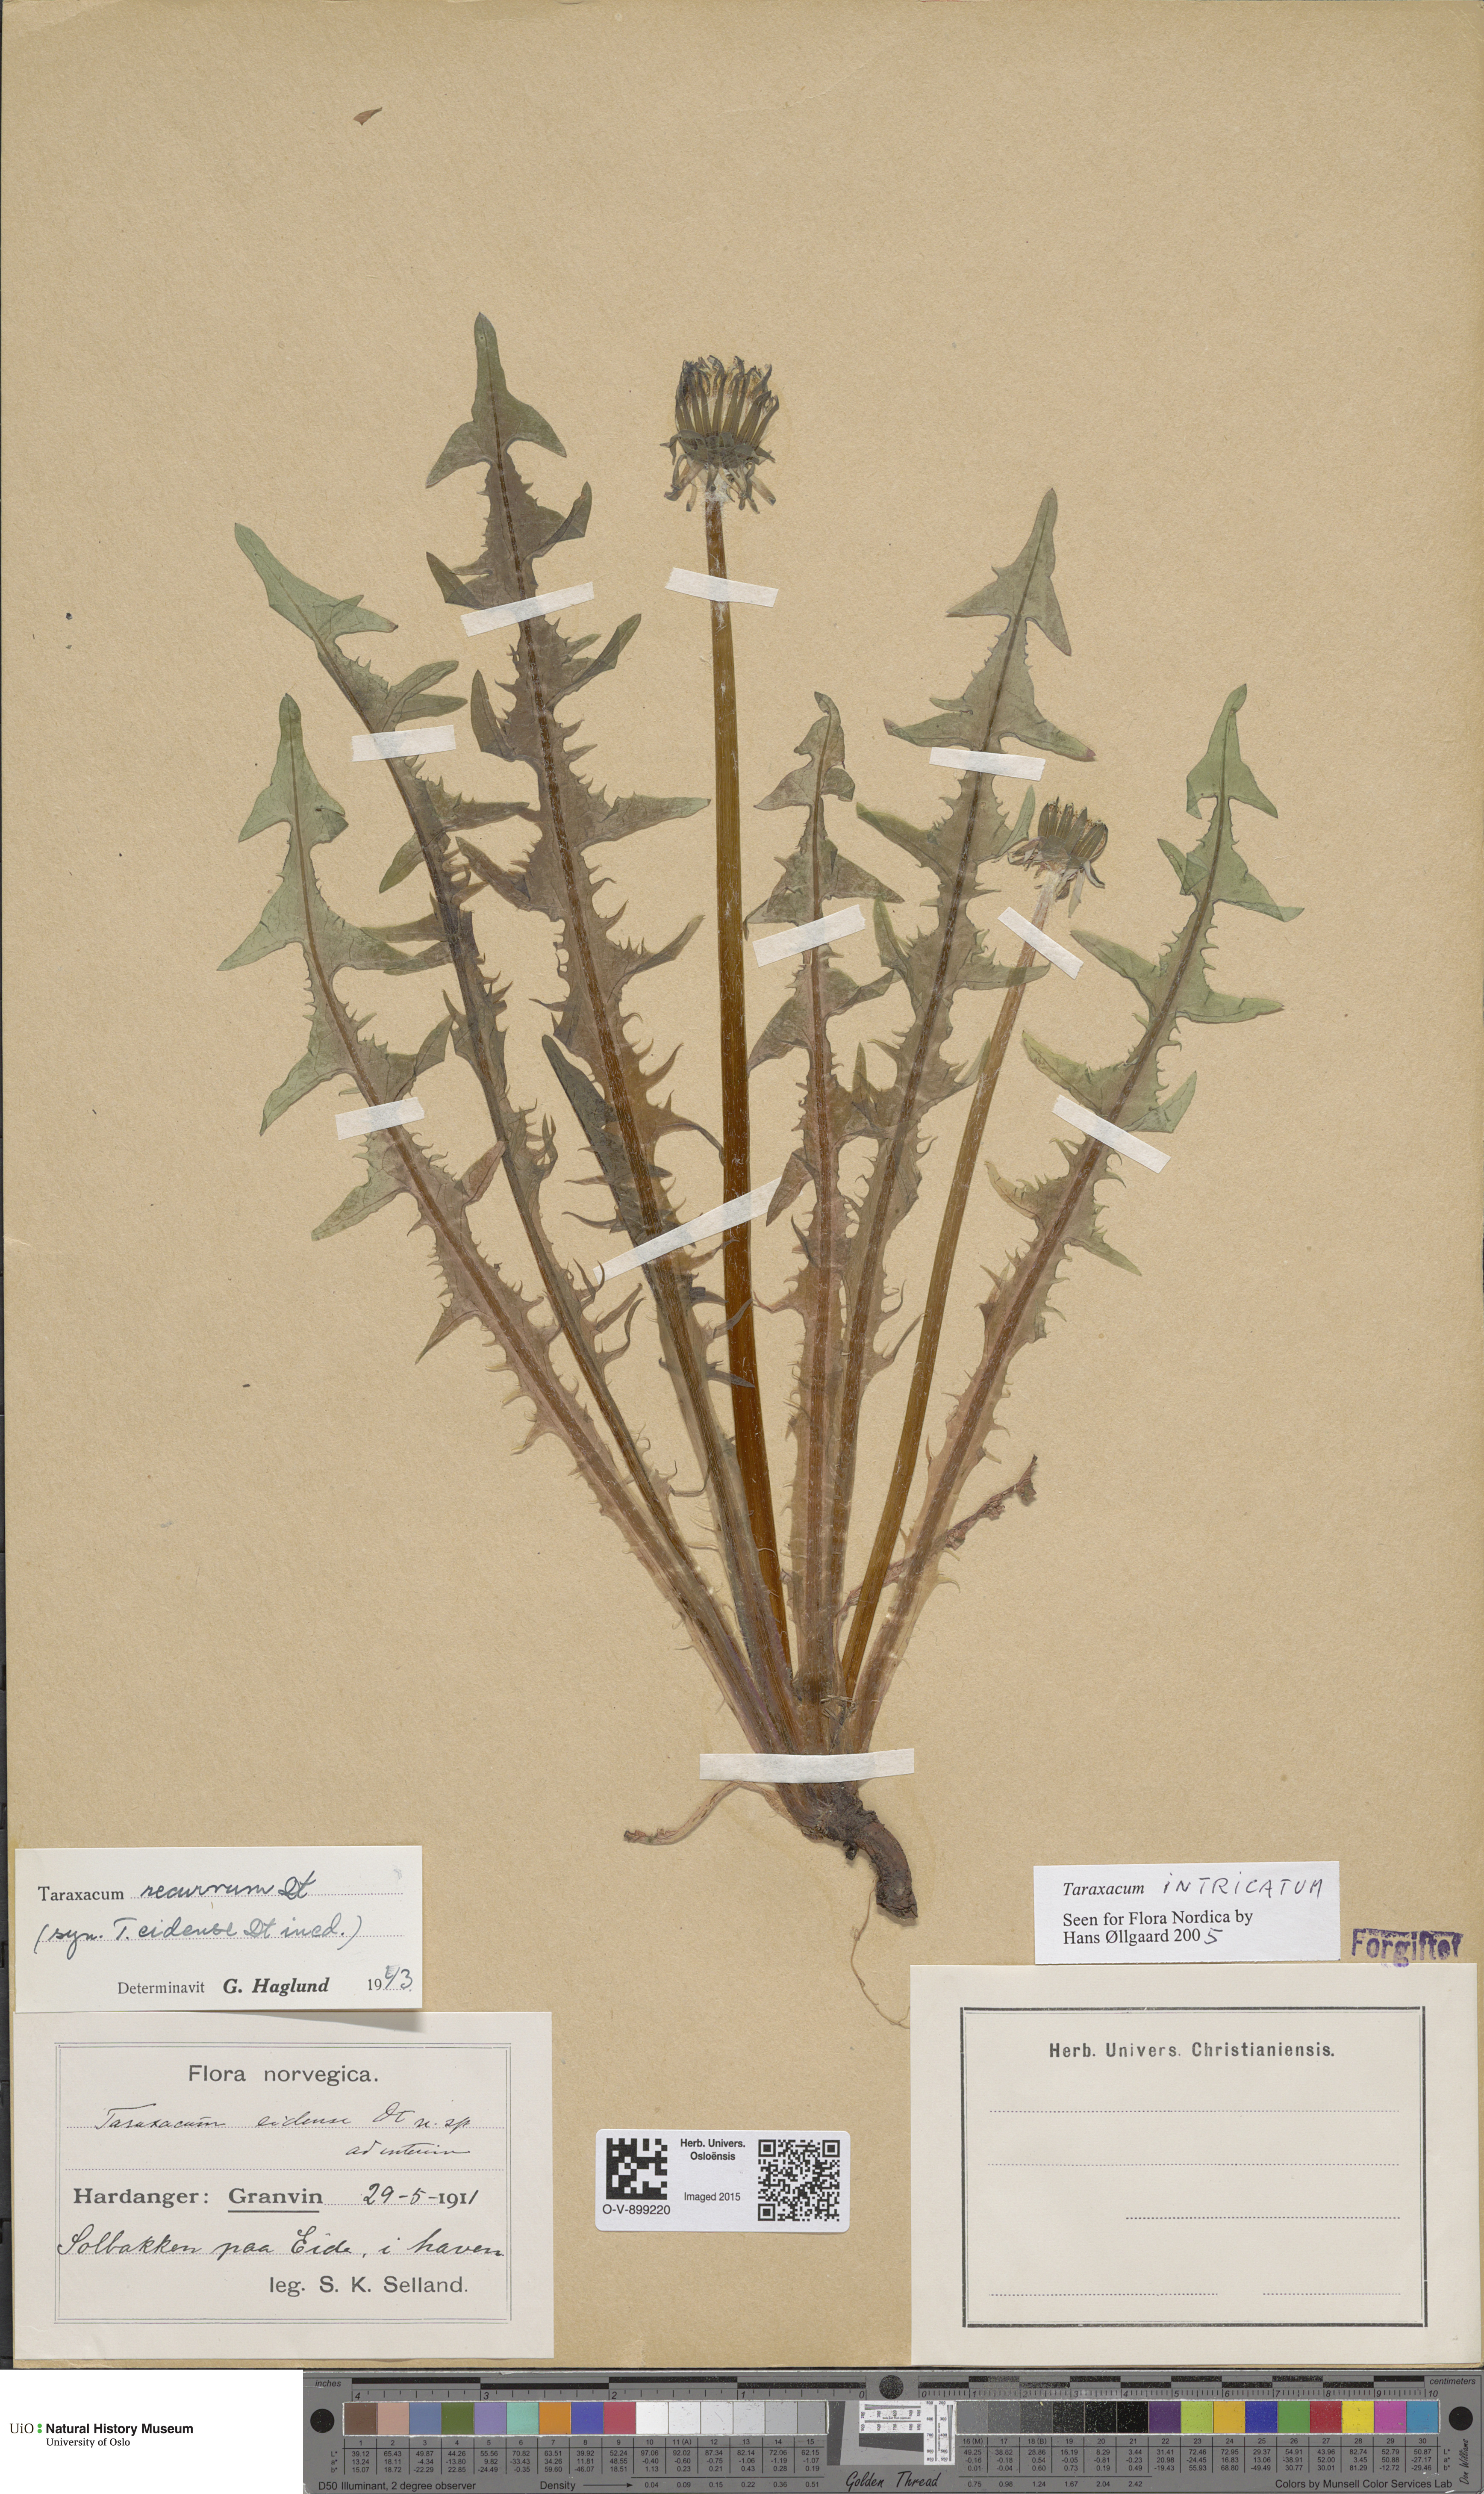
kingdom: Plantae
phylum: Tracheophyta
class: Magnoliopsida
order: Asterales
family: Asteraceae
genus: Taraxacum
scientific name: Taraxacum recurvum
